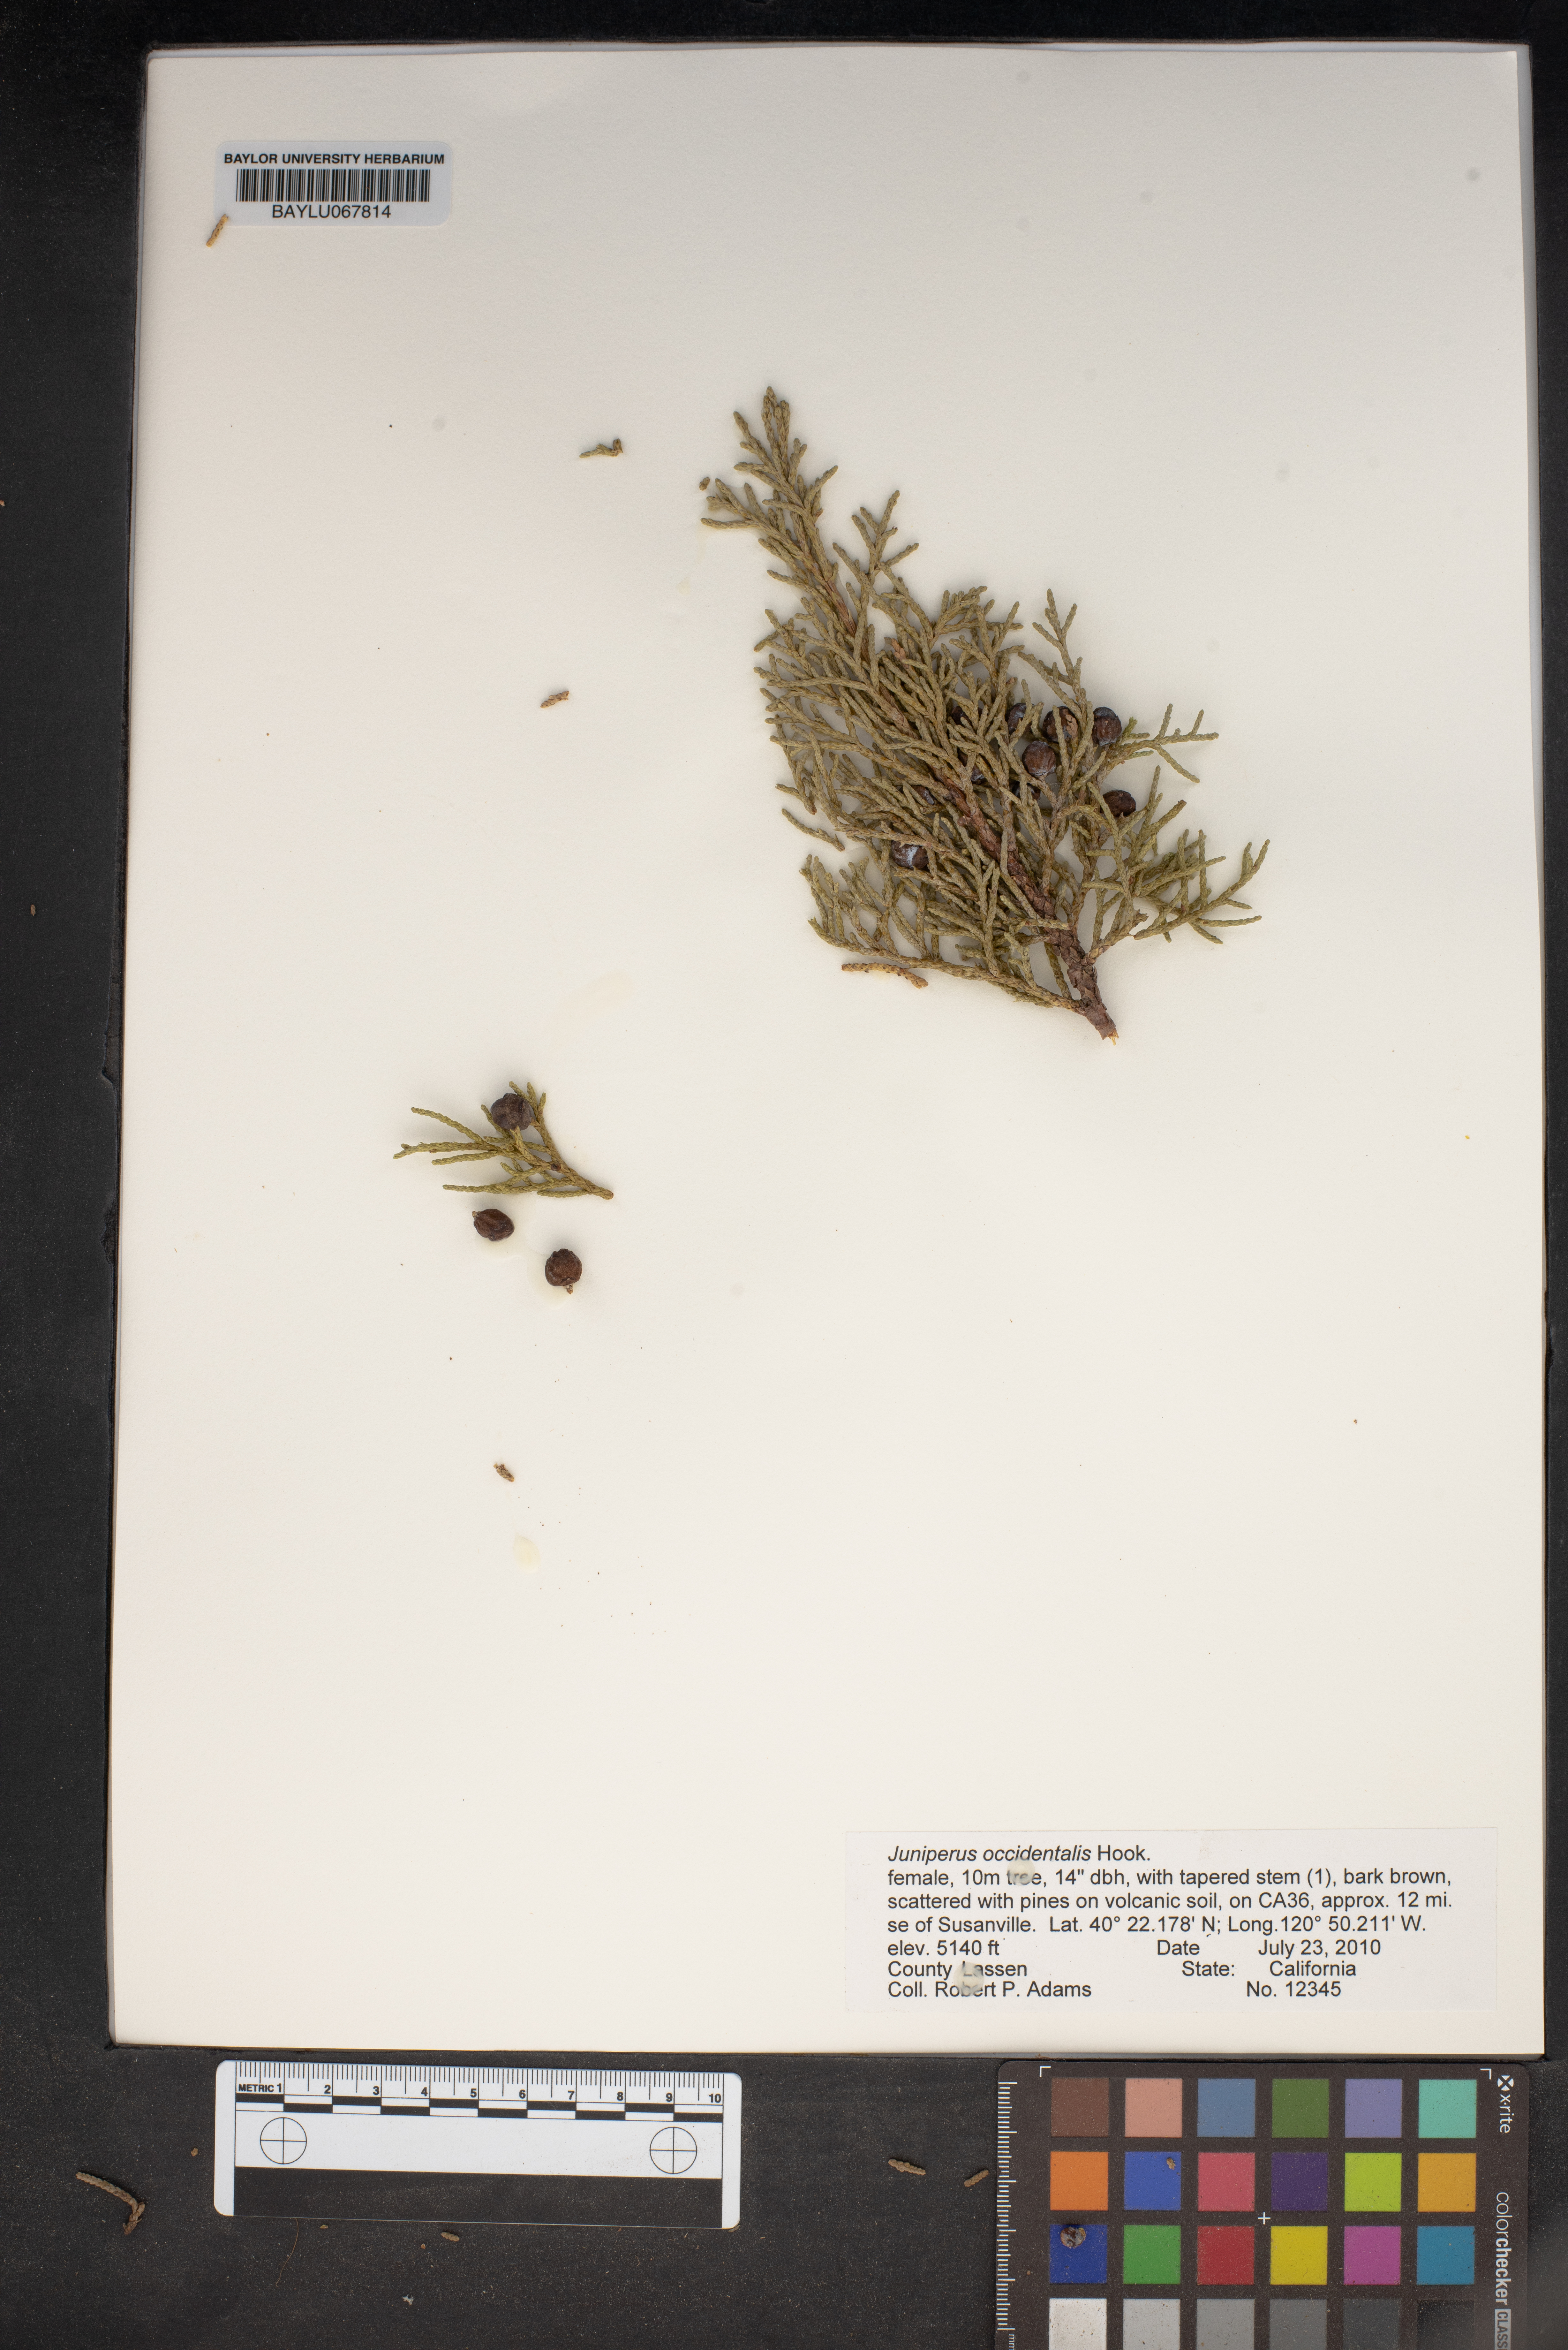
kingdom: Plantae
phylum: Tracheophyta
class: Pinopsida
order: Pinales
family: Cupressaceae
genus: Juniperus
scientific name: Juniperus occidentalis
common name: Western juniper
